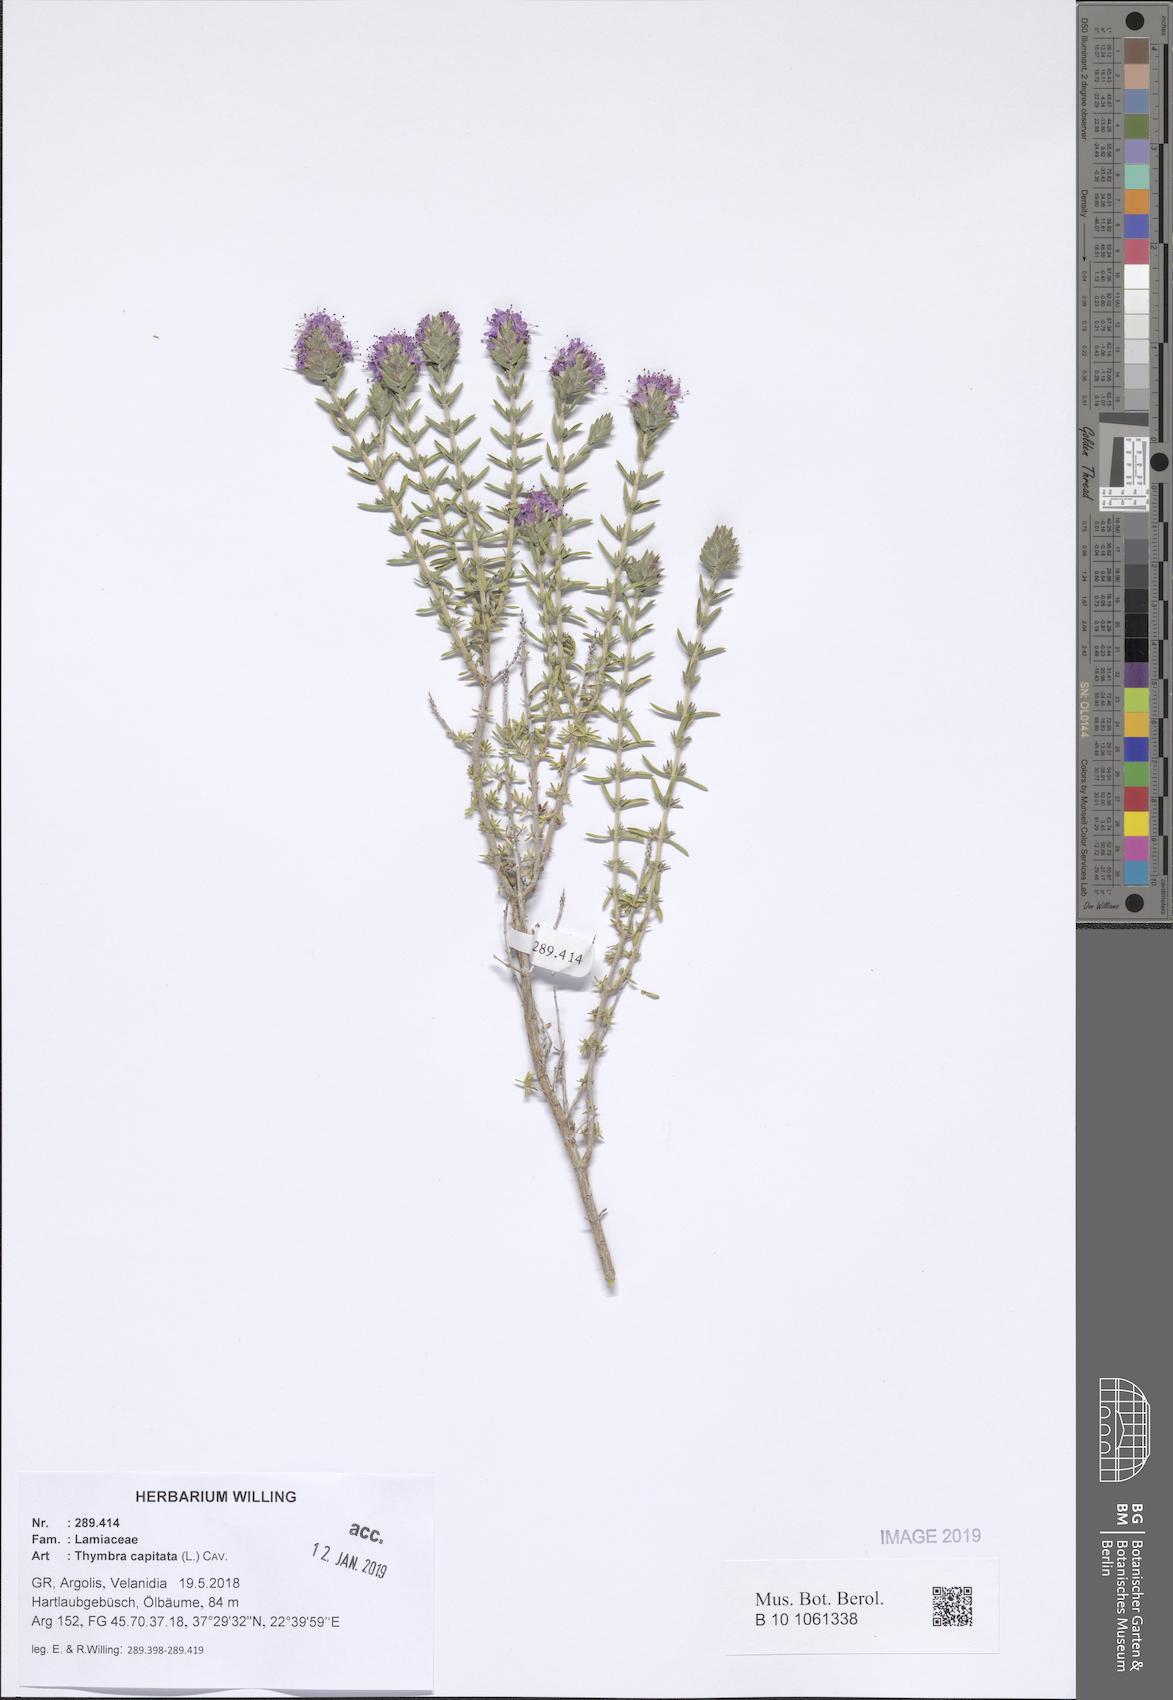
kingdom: Plantae
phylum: Tracheophyta
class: Magnoliopsida
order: Lamiales
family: Lamiaceae
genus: Thymbra
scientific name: Thymbra capitata
